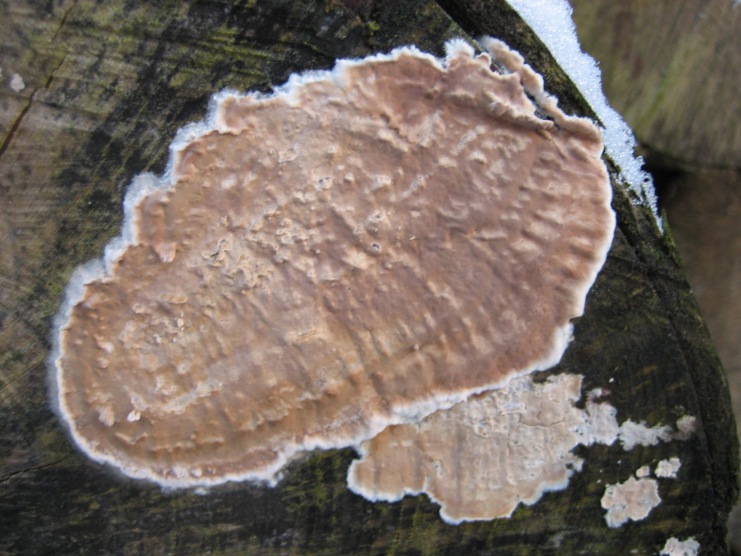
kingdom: Fungi
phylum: Basidiomycota
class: Agaricomycetes
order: Agaricales
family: Physalacriaceae
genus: Cylindrobasidium
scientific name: Cylindrobasidium evolvens
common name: sprækkehinde
